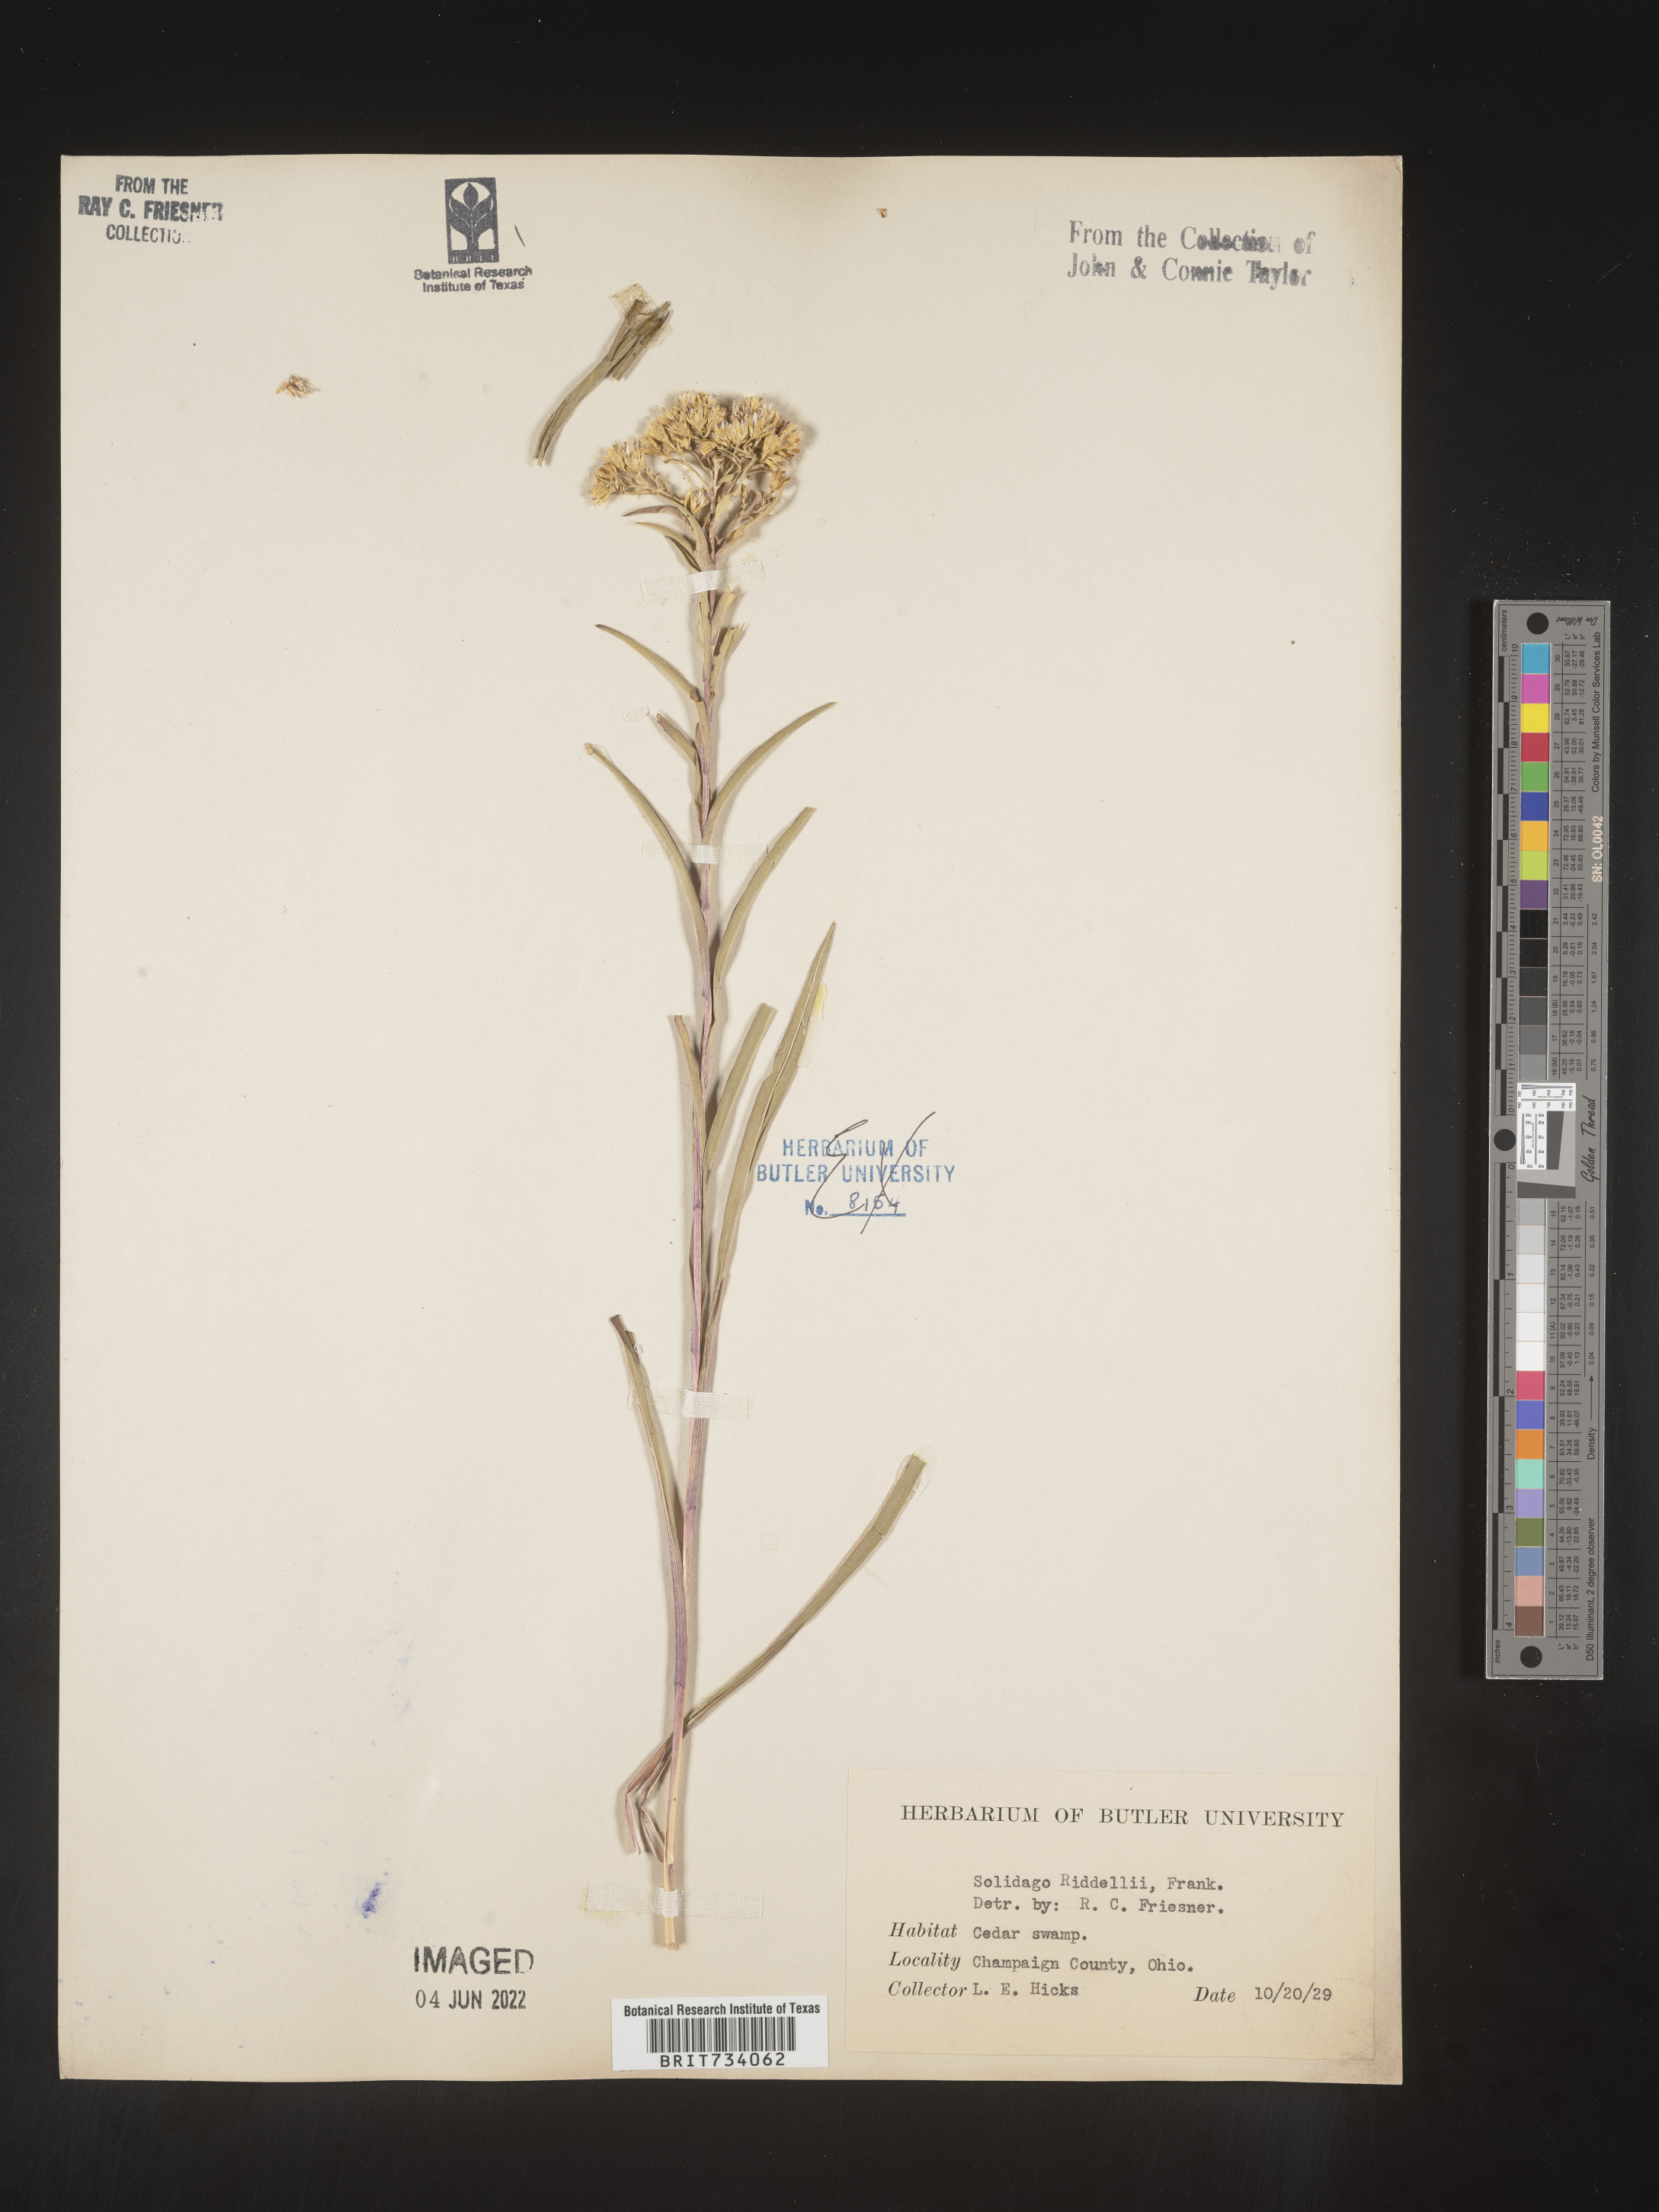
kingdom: Plantae
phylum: Tracheophyta
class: Magnoliopsida
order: Asterales
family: Asteraceae
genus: Solidago
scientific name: Solidago riddellii
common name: Riddell's goldenrod
